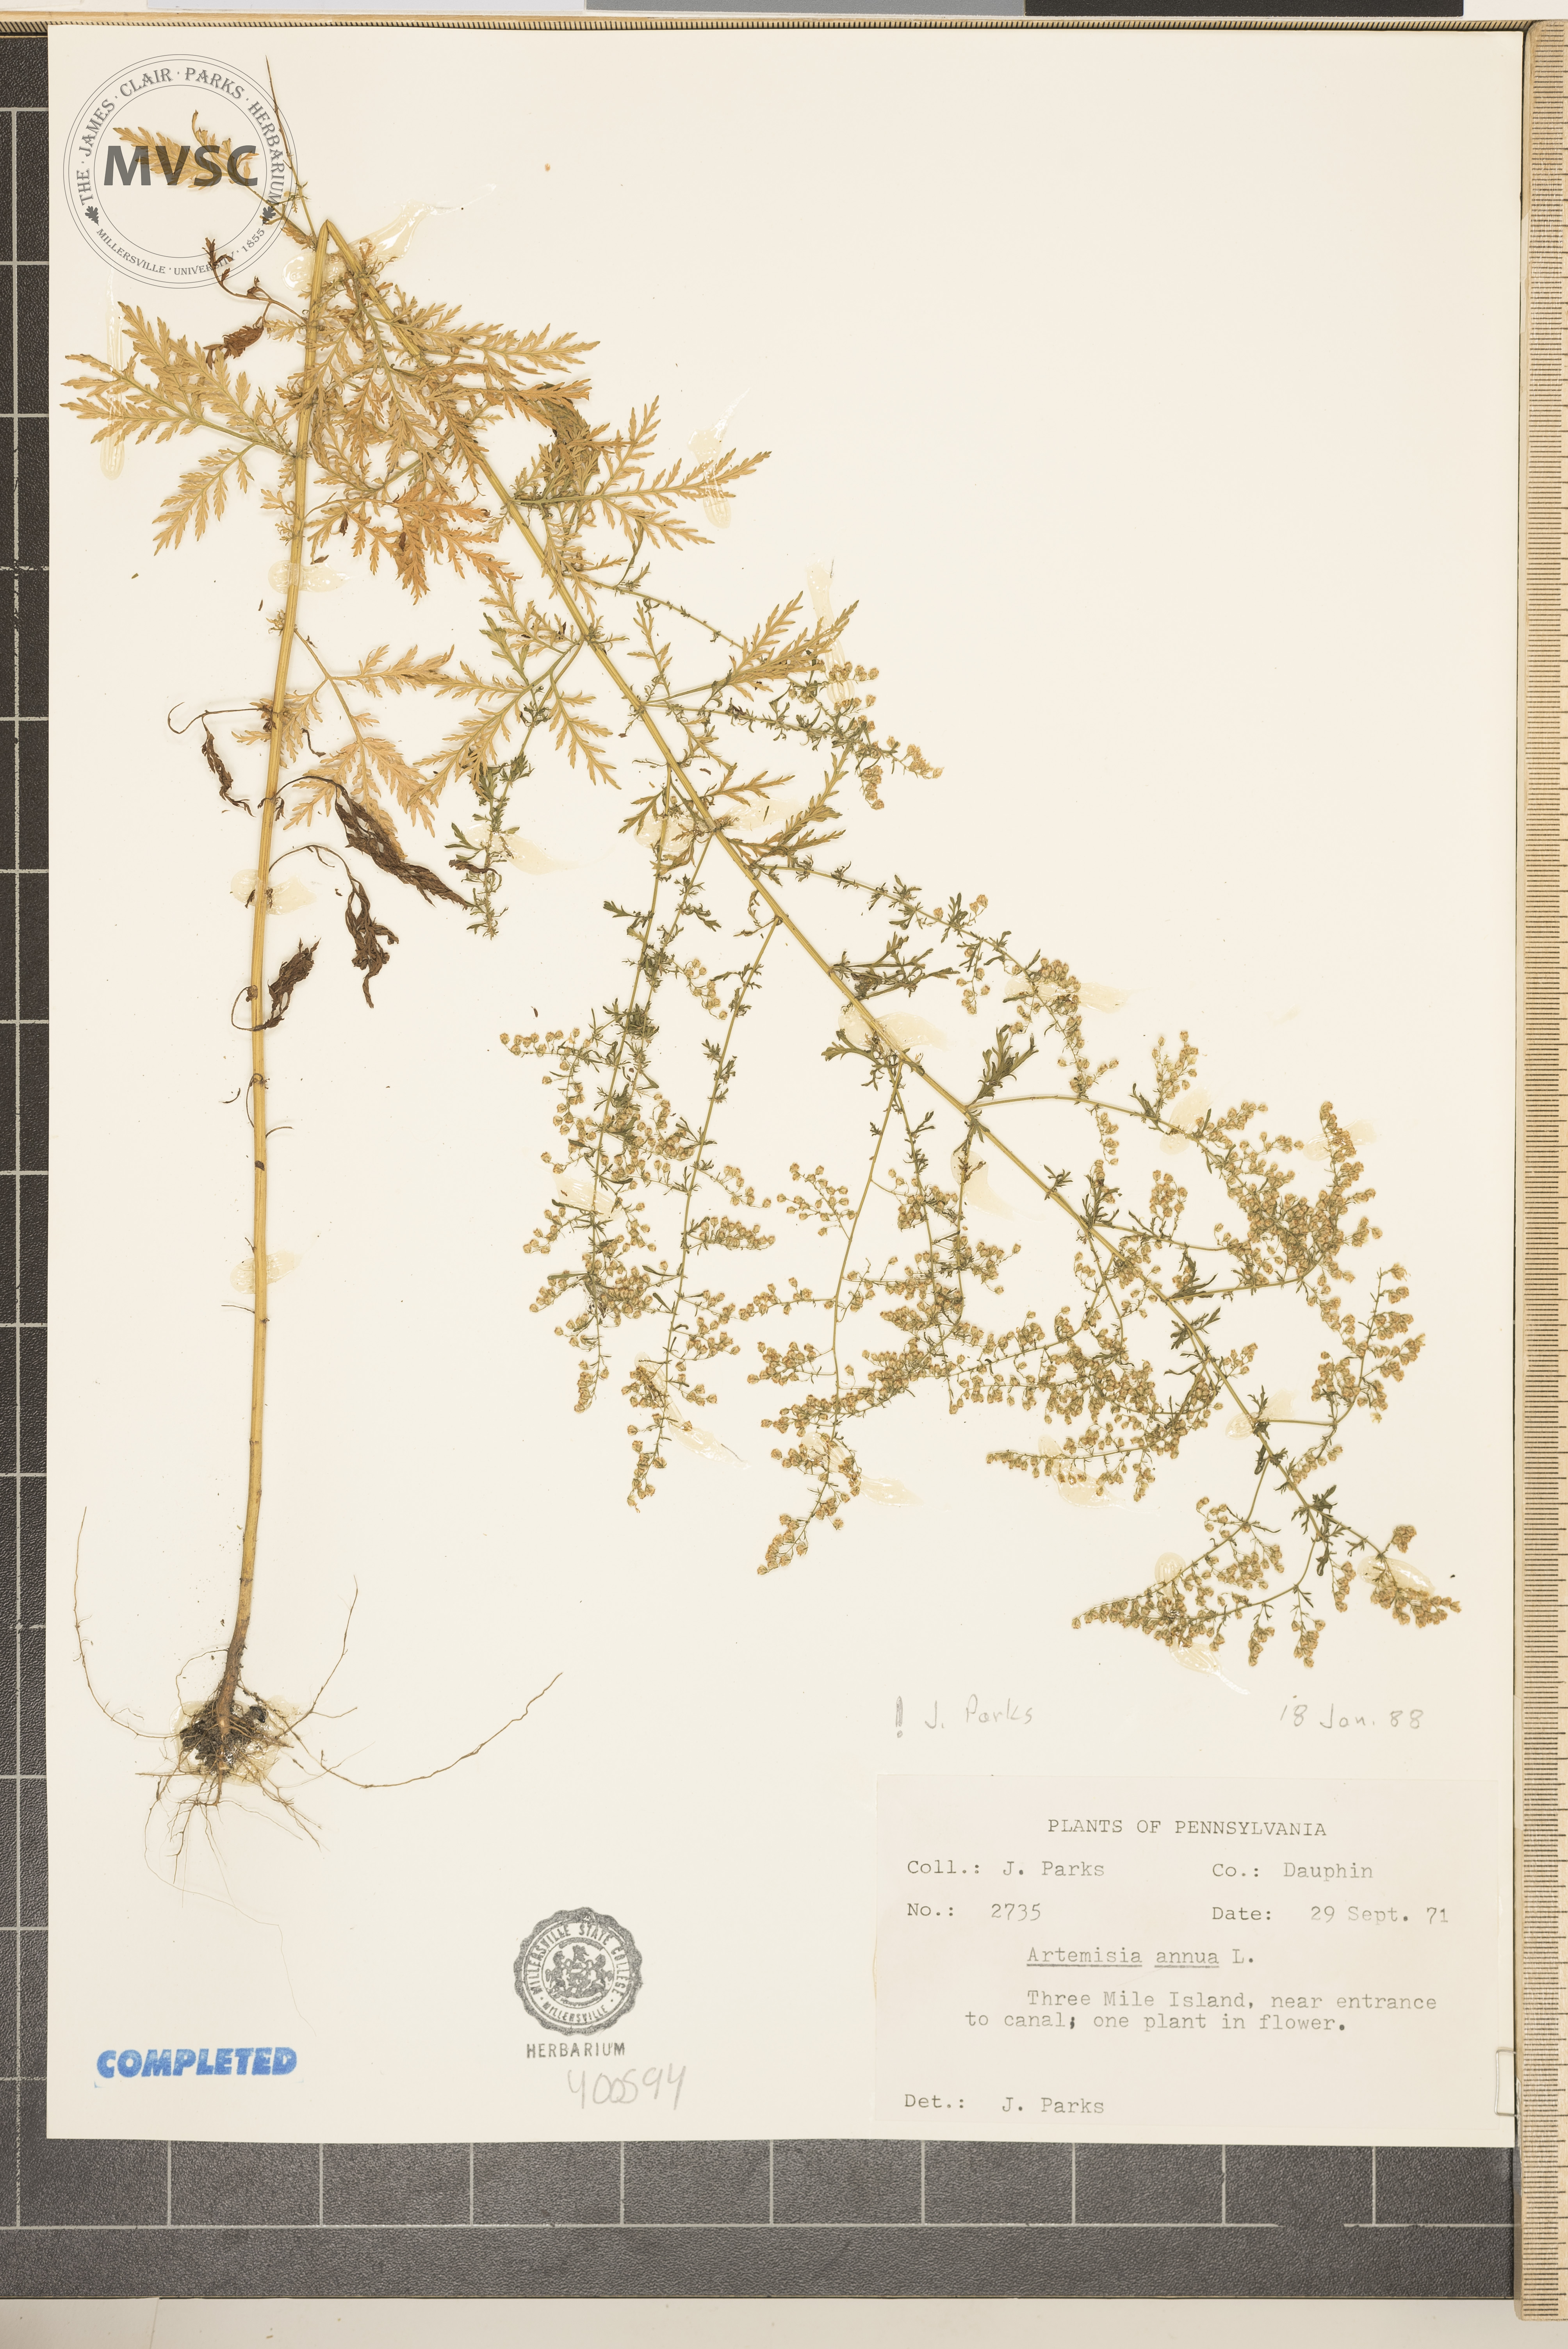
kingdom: Plantae
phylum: Tracheophyta
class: Magnoliopsida
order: Asterales
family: Asteraceae
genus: Artemisia
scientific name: Artemisia annua
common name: Sweet sagewort
